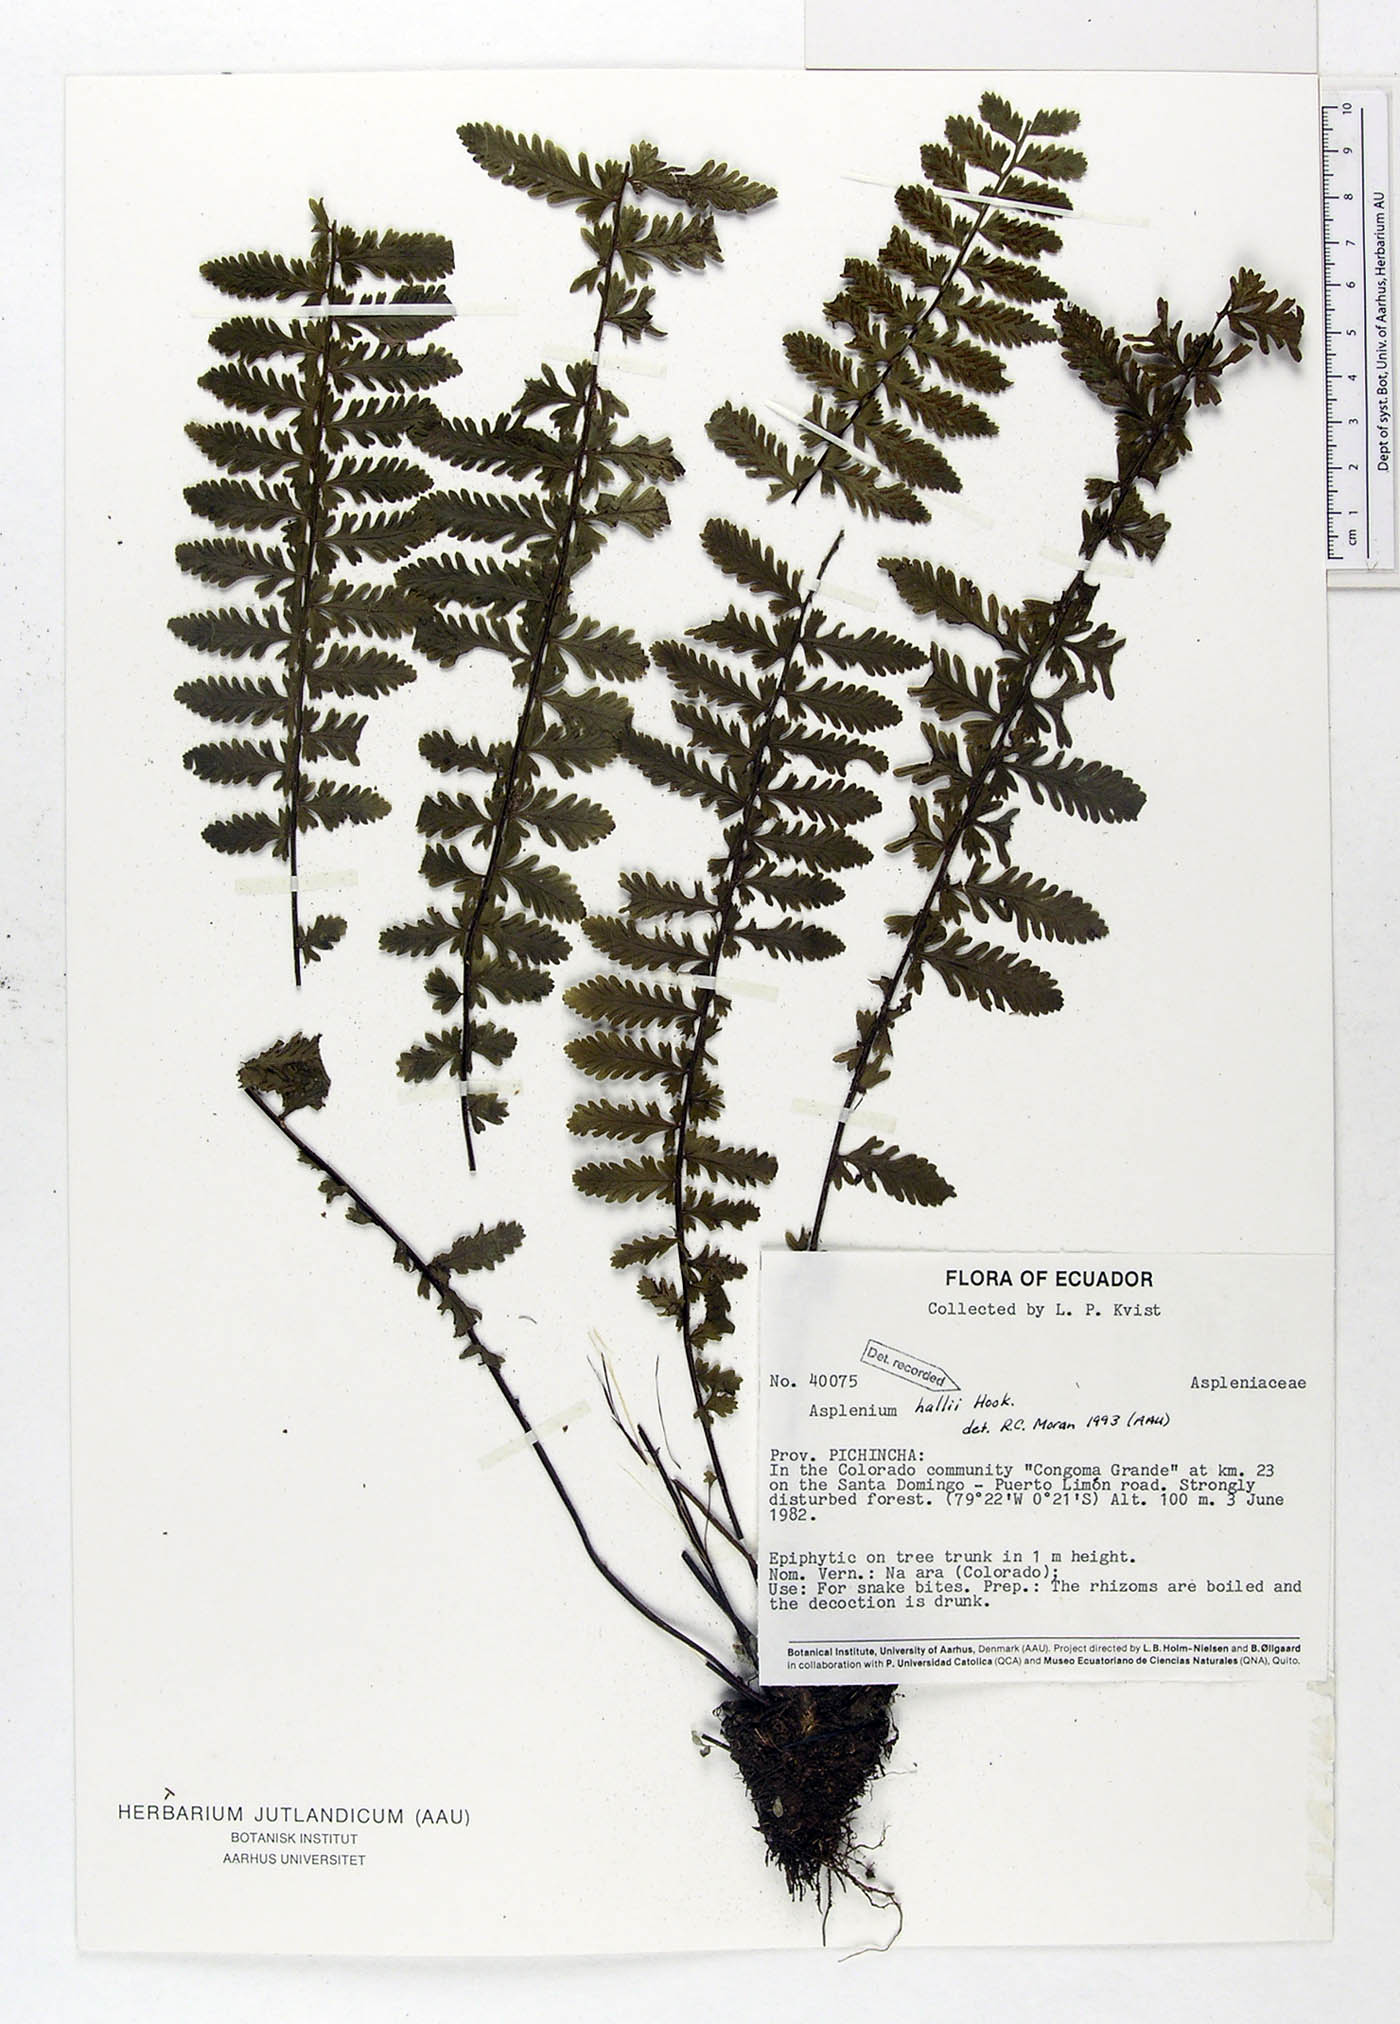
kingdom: Plantae
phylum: Tracheophyta
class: Polypodiopsida
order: Polypodiales
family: Aspleniaceae
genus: Asplenium
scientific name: Asplenium hallii
